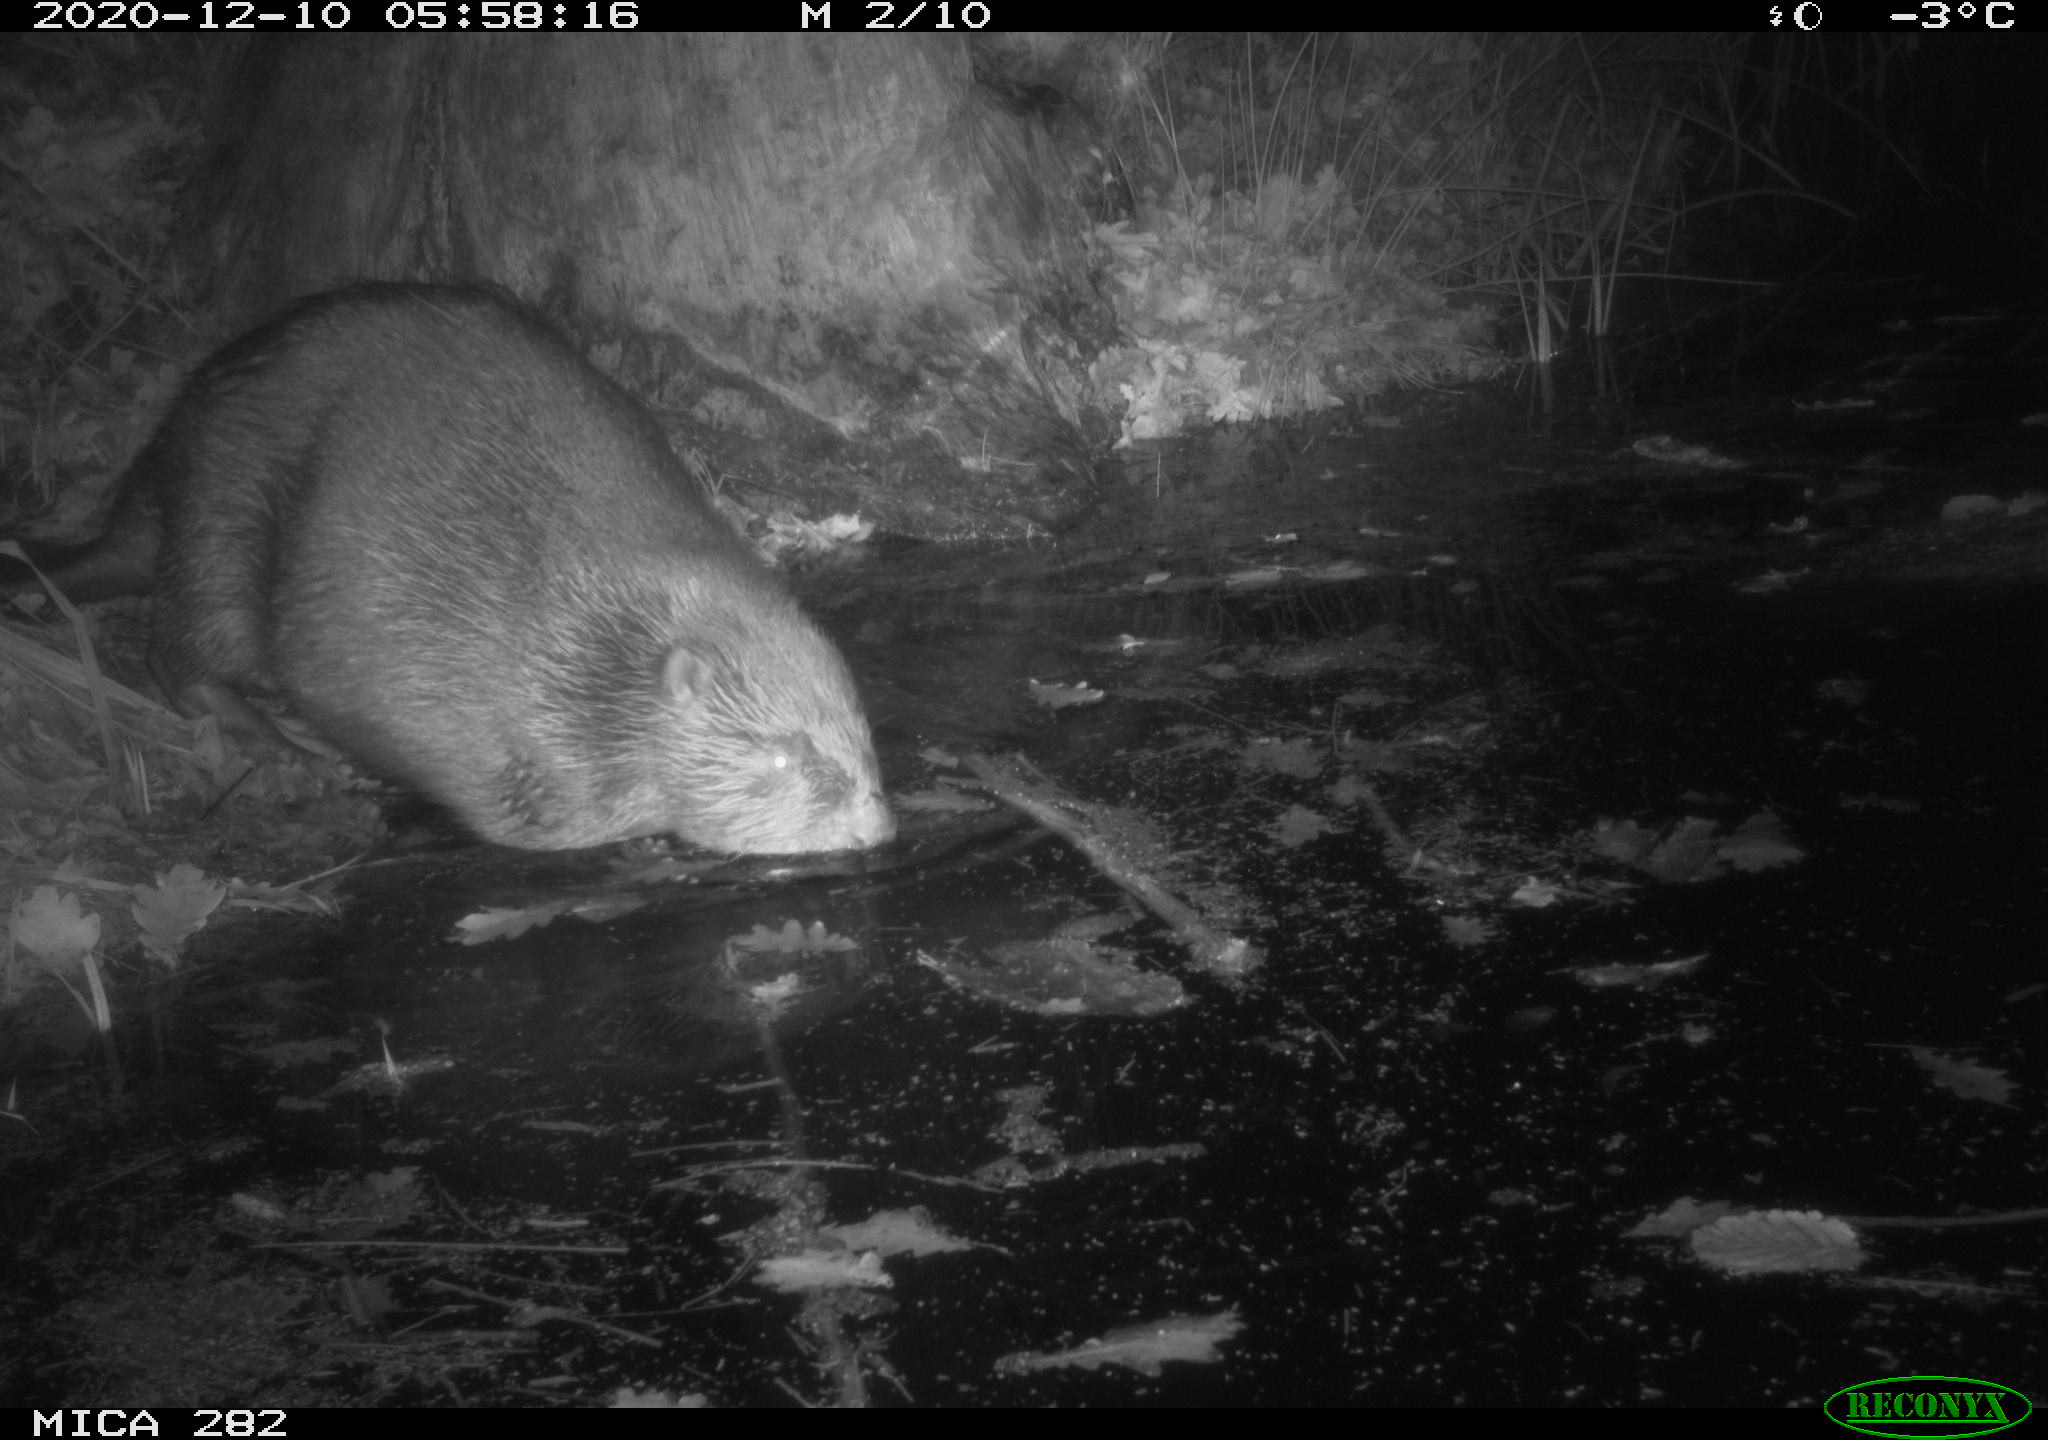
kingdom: Animalia
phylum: Chordata
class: Mammalia
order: Rodentia
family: Castoridae
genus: Castor
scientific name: Castor fiber
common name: Eurasian beaver
